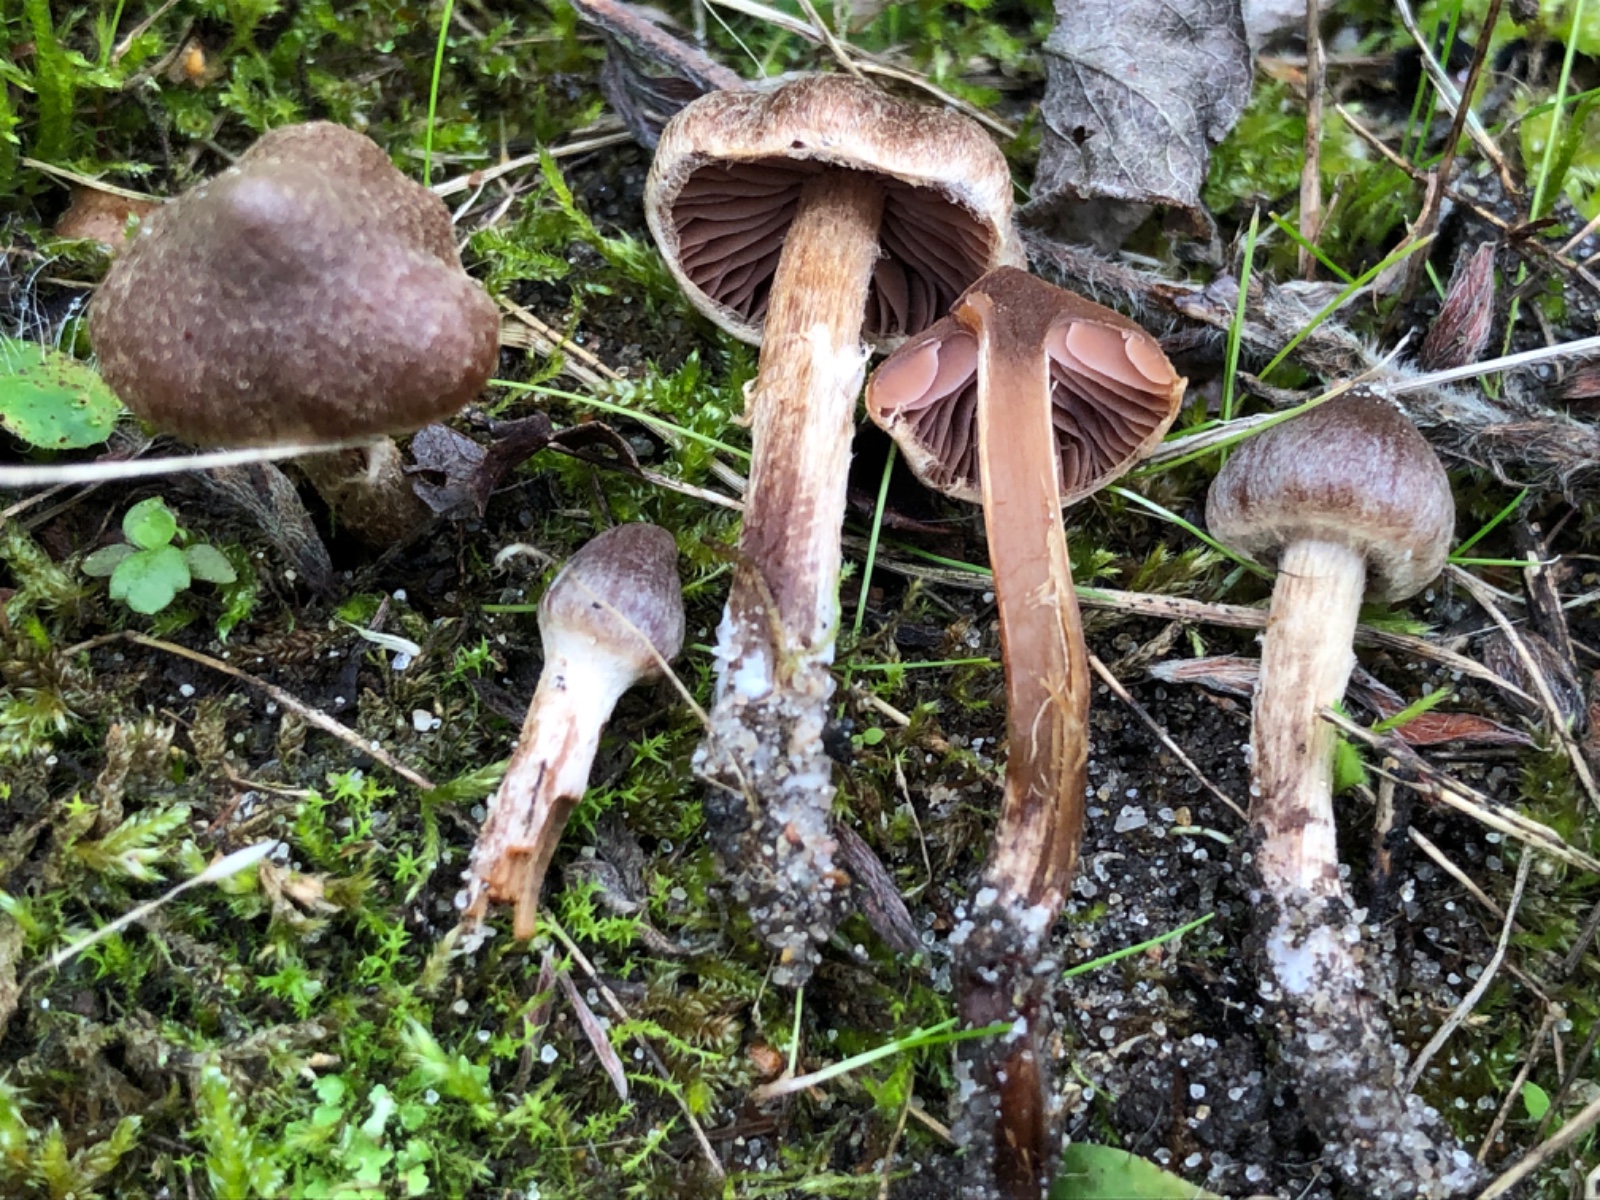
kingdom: Fungi
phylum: Basidiomycota
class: Agaricomycetes
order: Agaricales
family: Cortinariaceae
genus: Cortinarius
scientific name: Cortinarius desertorum
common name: skær slørhat
